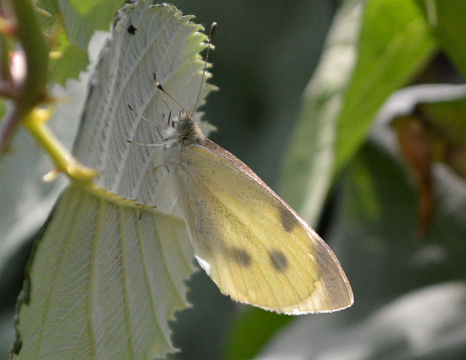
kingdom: Animalia
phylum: Arthropoda
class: Insecta
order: Lepidoptera
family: Pieridae
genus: Pieris
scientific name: Pieris rapae
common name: Cabbage White
